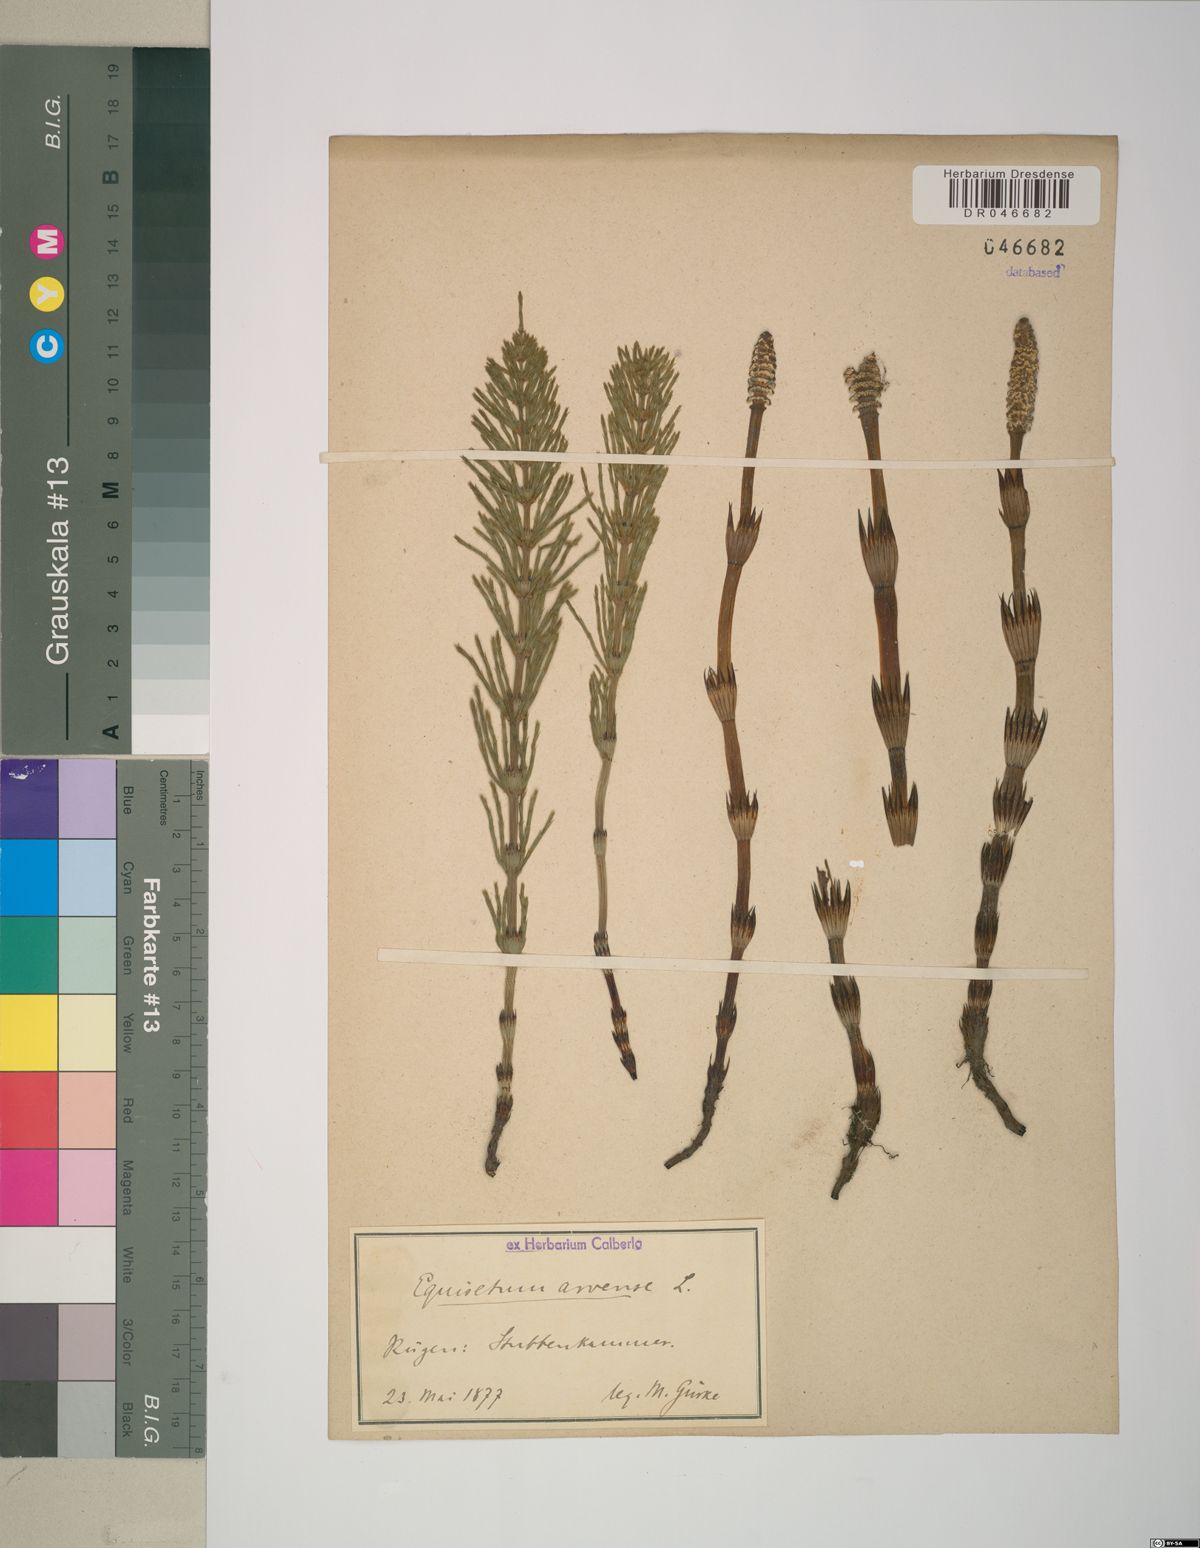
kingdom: Plantae
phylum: Tracheophyta
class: Polypodiopsida
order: Equisetales
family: Equisetaceae
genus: Equisetum
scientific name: Equisetum arvense
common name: Field horsetail
